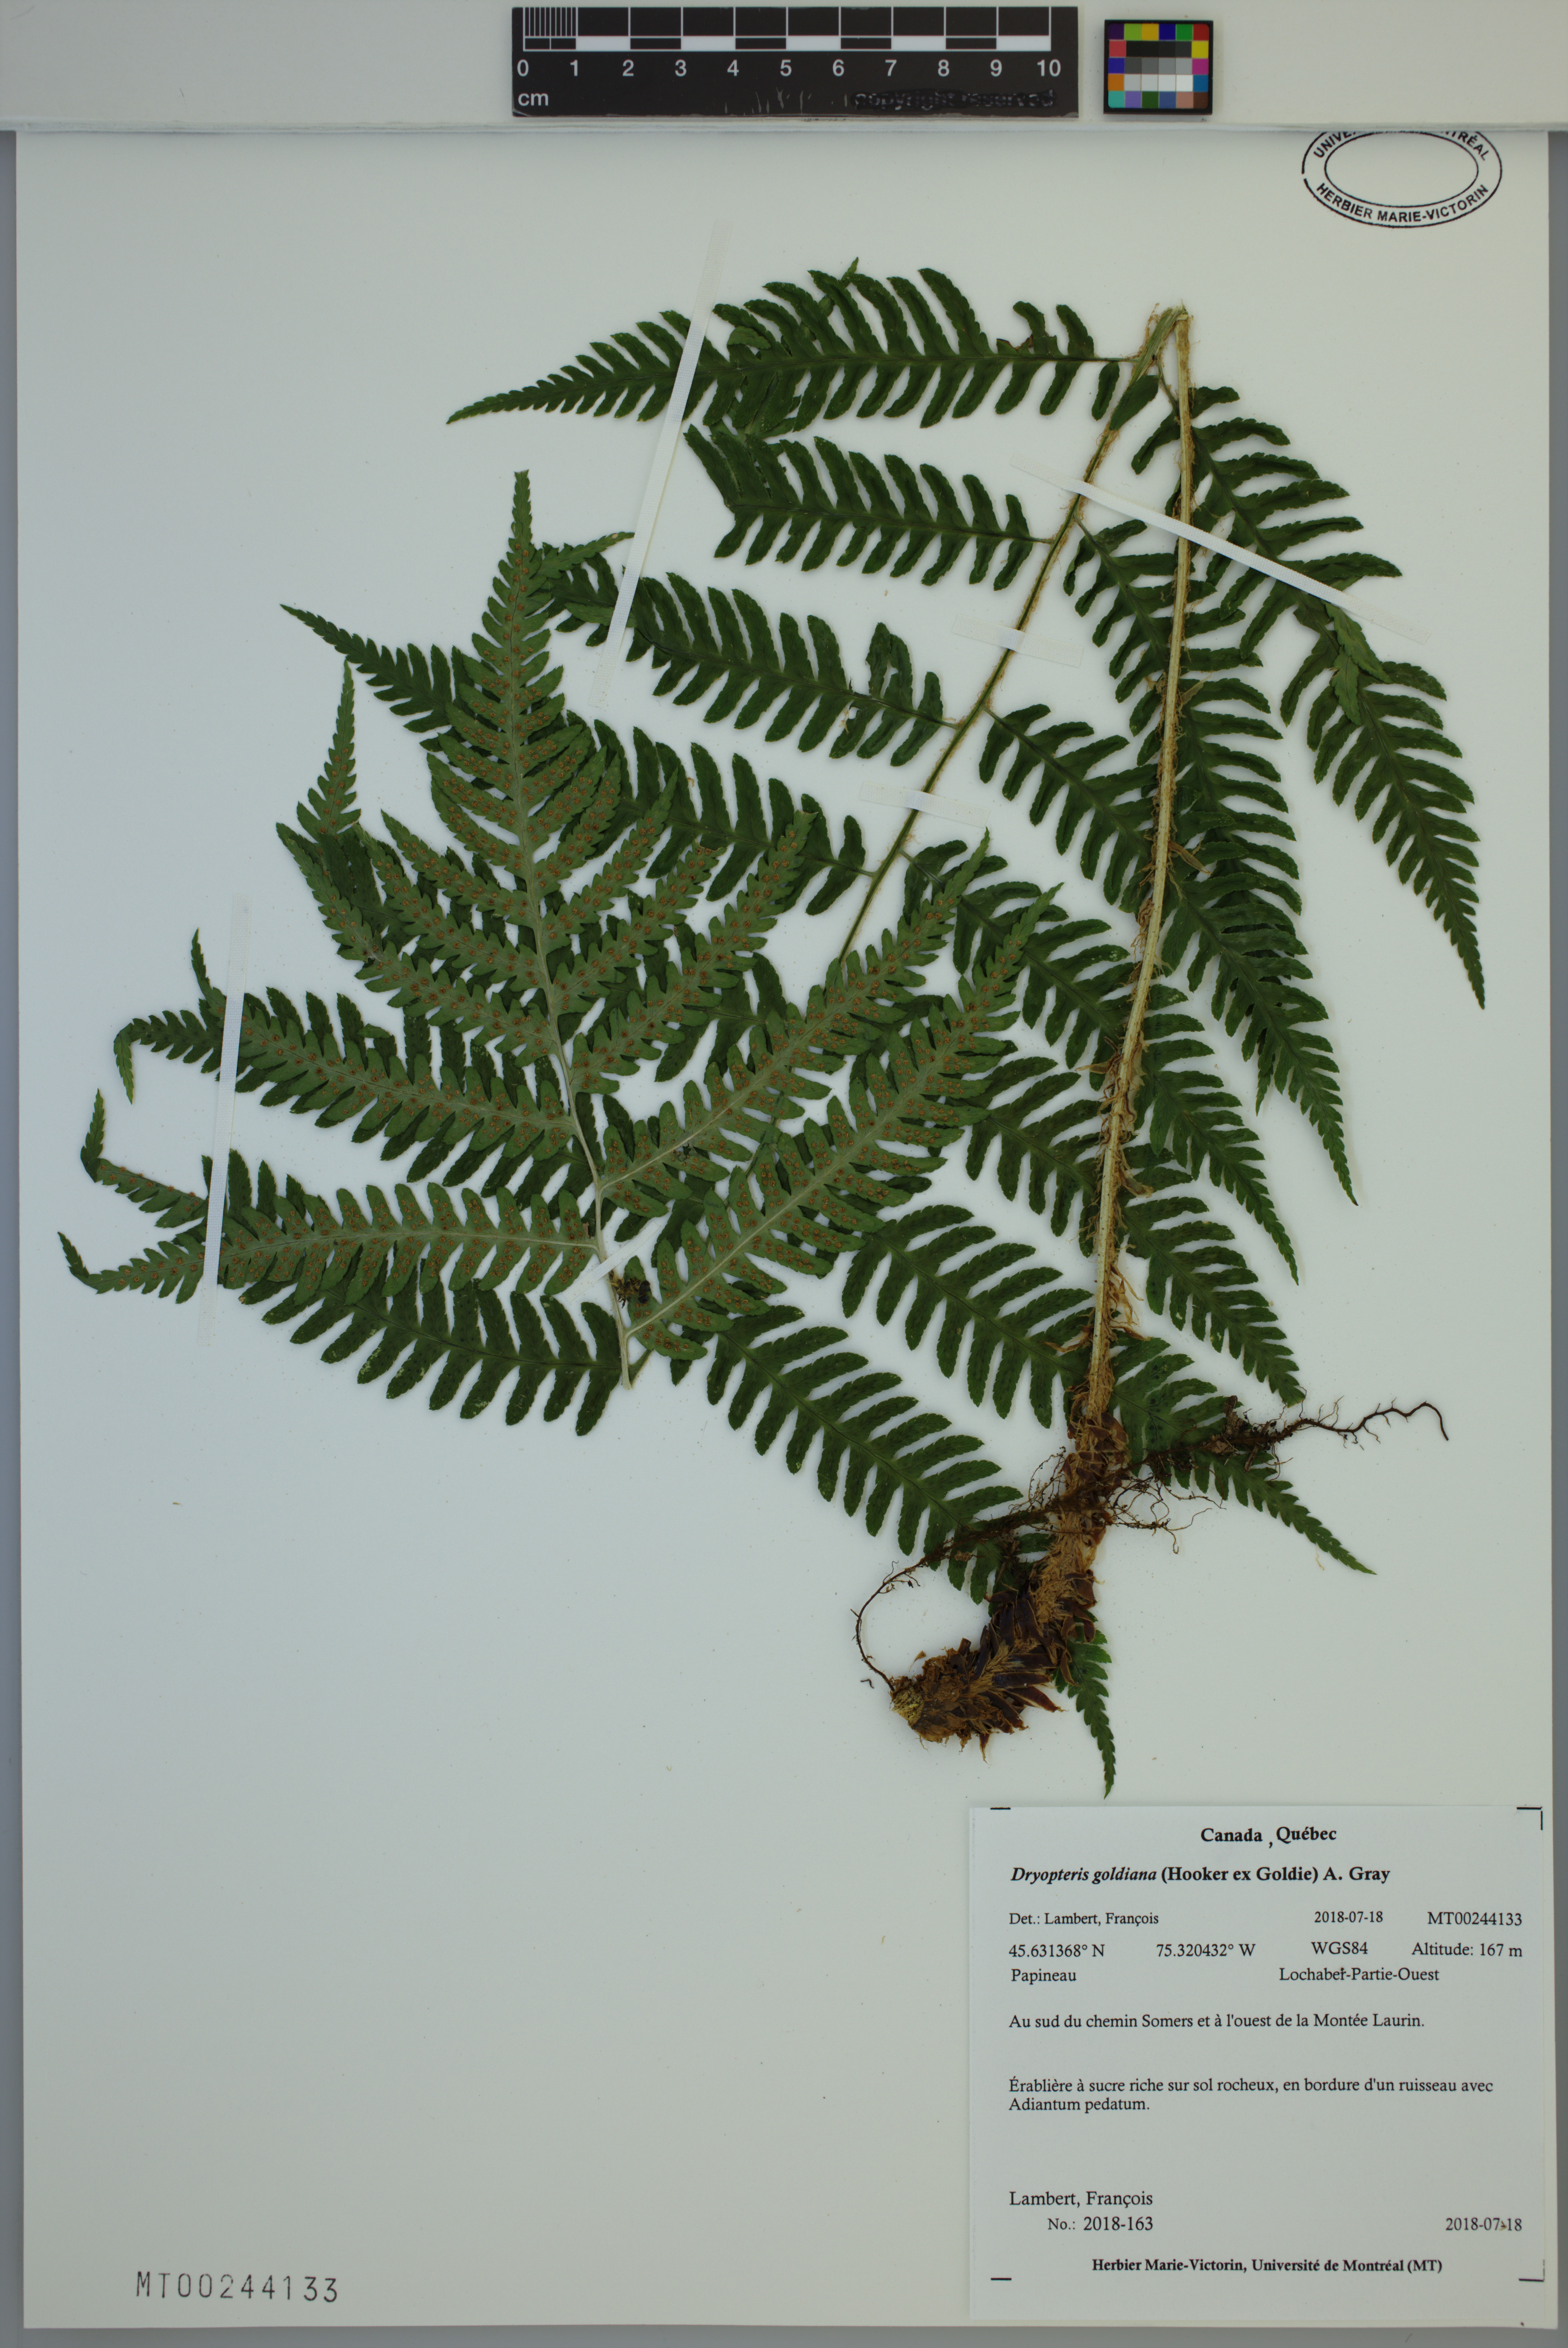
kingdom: Plantae
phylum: Tracheophyta
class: Polypodiopsida
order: Polypodiales
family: Dryopteridaceae
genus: Dryopteris
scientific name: Dryopteris goldieana
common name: Goldie's fern
